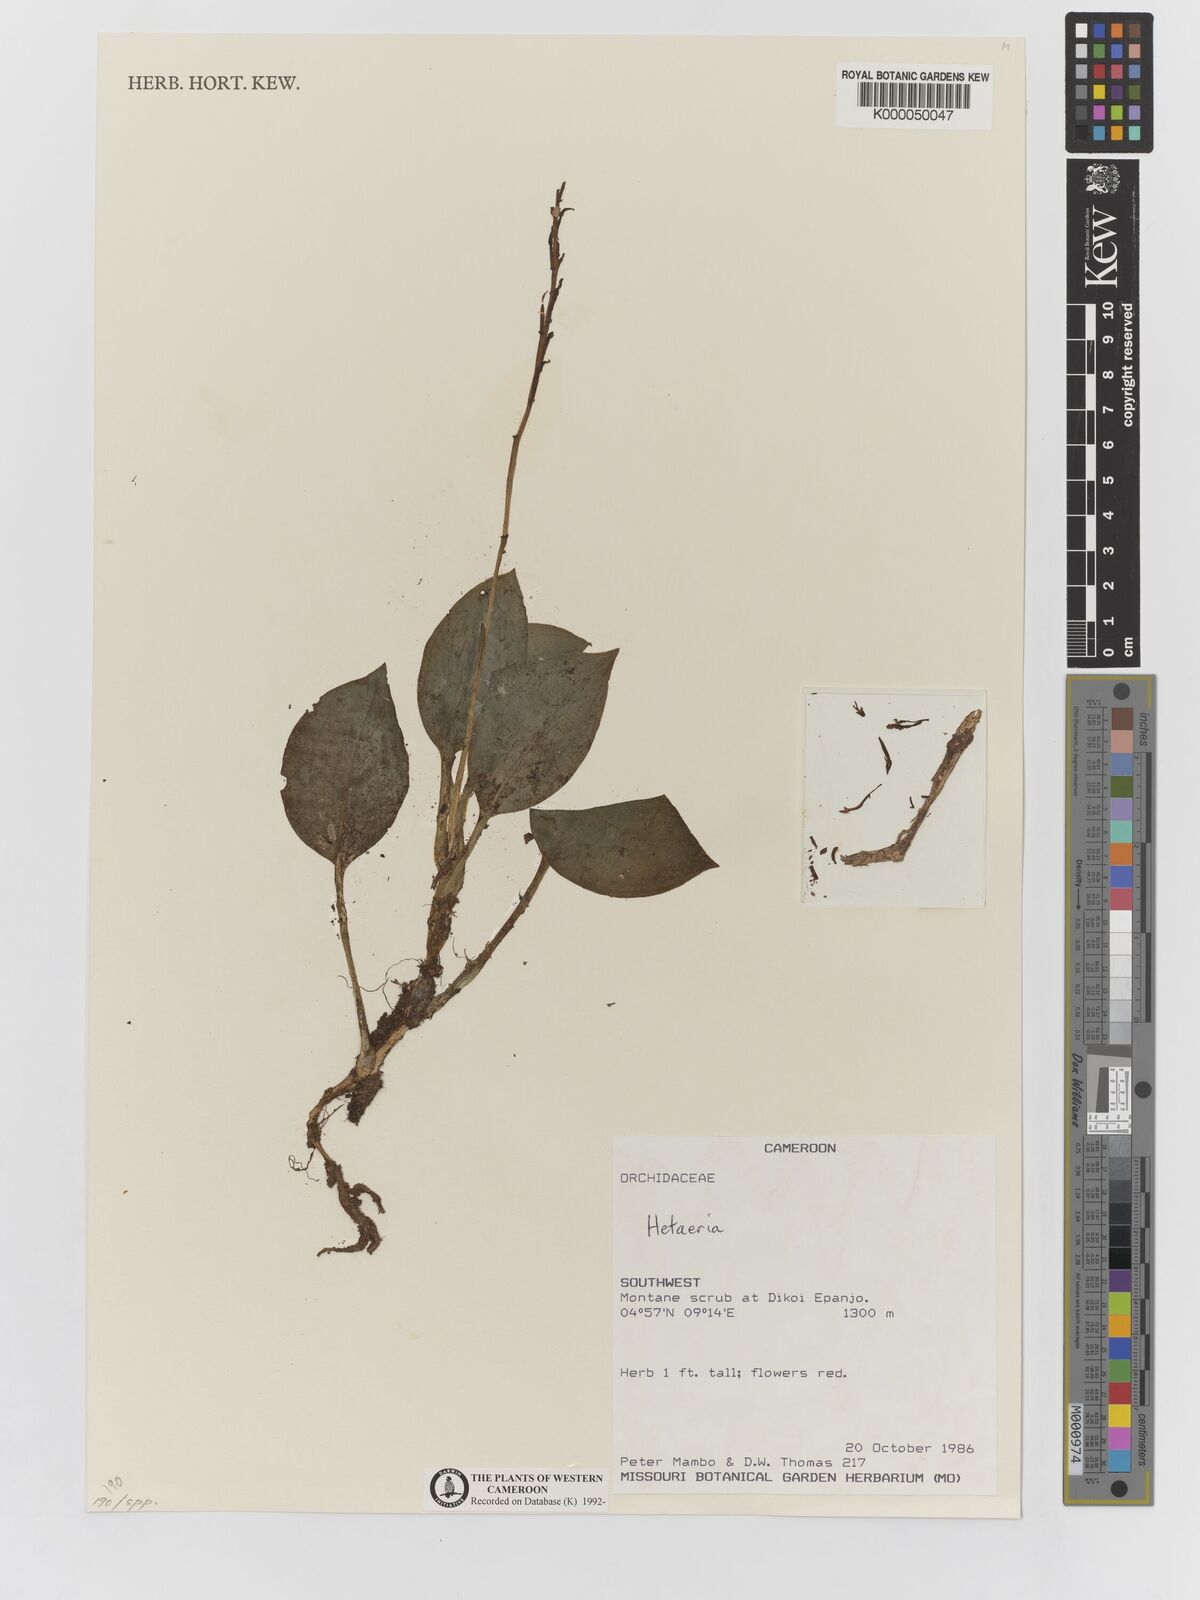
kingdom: Plantae
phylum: Tracheophyta
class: Liliopsida
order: Asparagales
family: Orchidaceae
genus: Hetaeria
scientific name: Hetaeria
